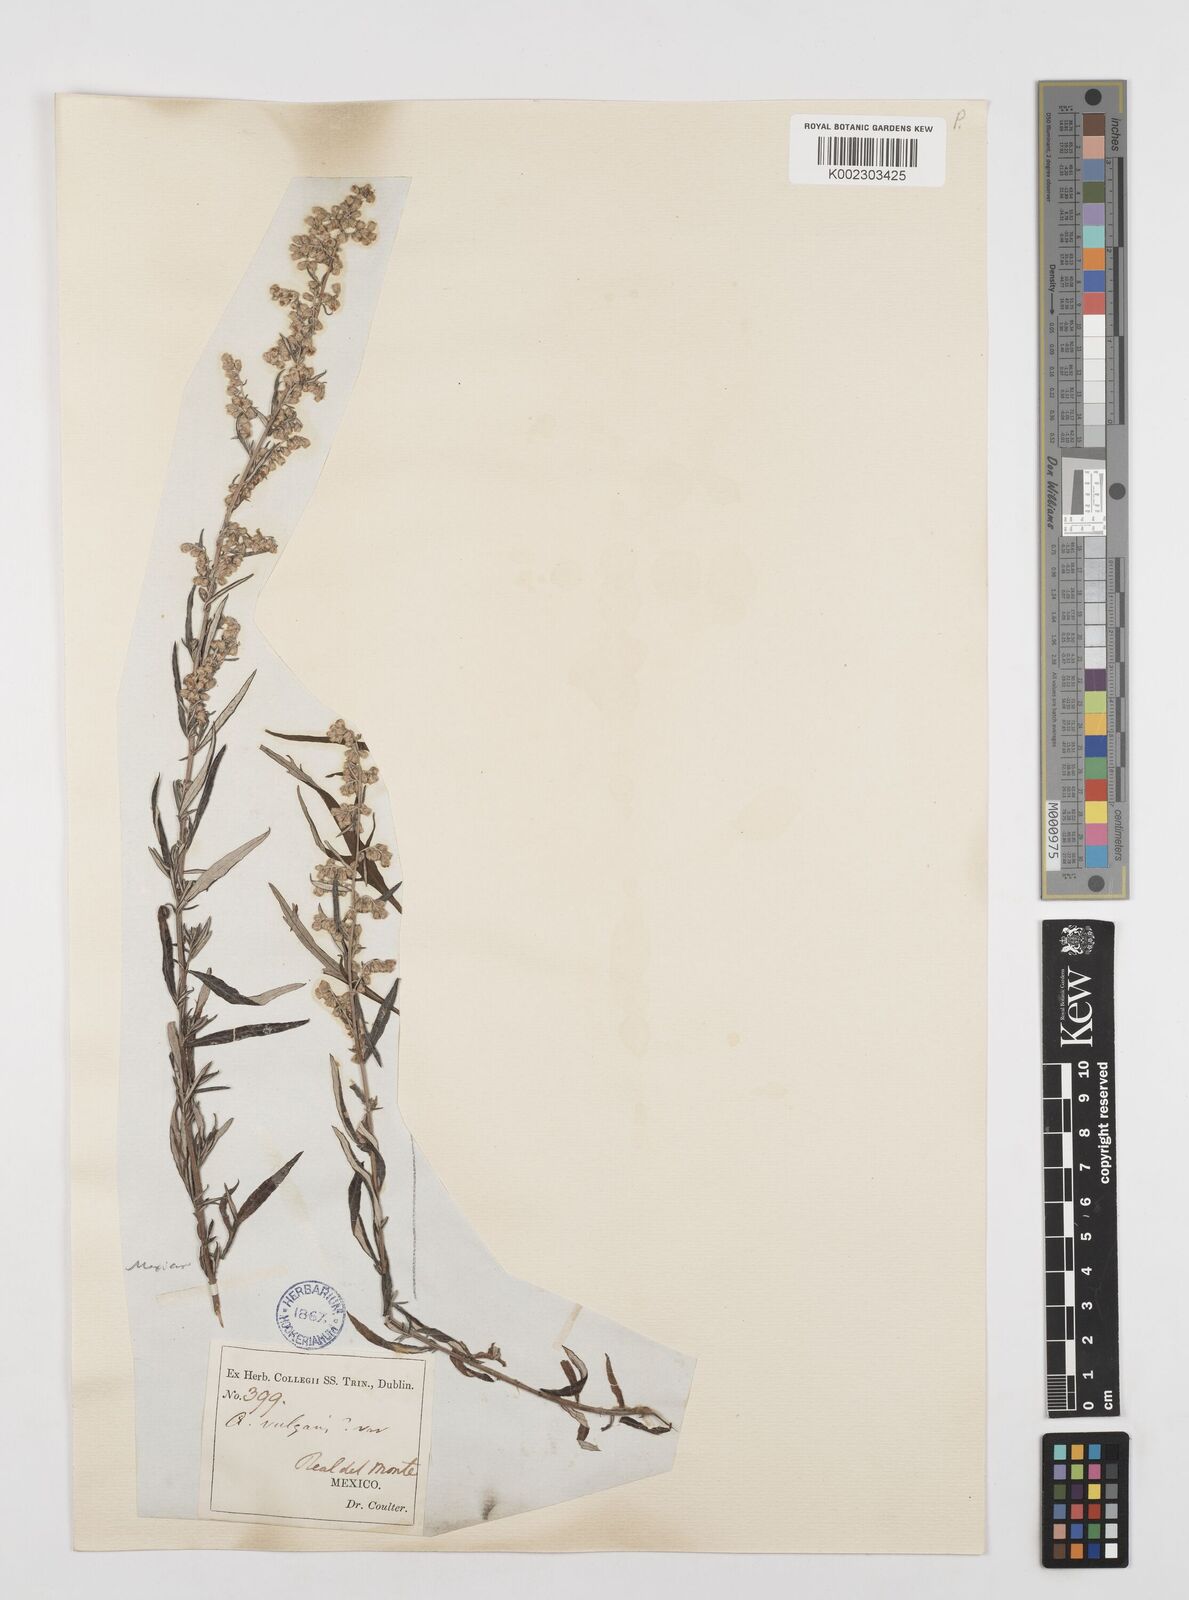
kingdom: Plantae
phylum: Tracheophyta
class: Magnoliopsida
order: Asterales
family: Asteraceae
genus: Artemisia
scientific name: Artemisia ludoviciana
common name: Western mugwort
